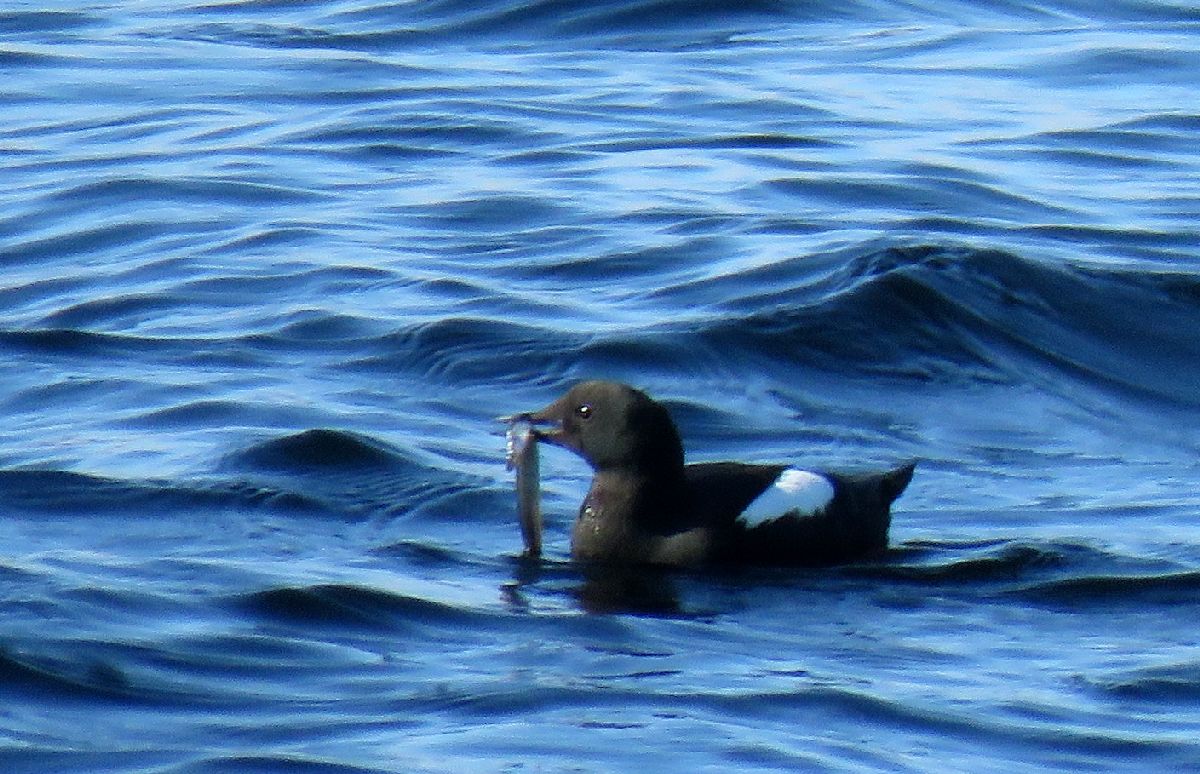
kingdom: Animalia
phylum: Chordata
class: Aves
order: Charadriiformes
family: Alcidae
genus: Cepphus
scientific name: Cepphus grylle
